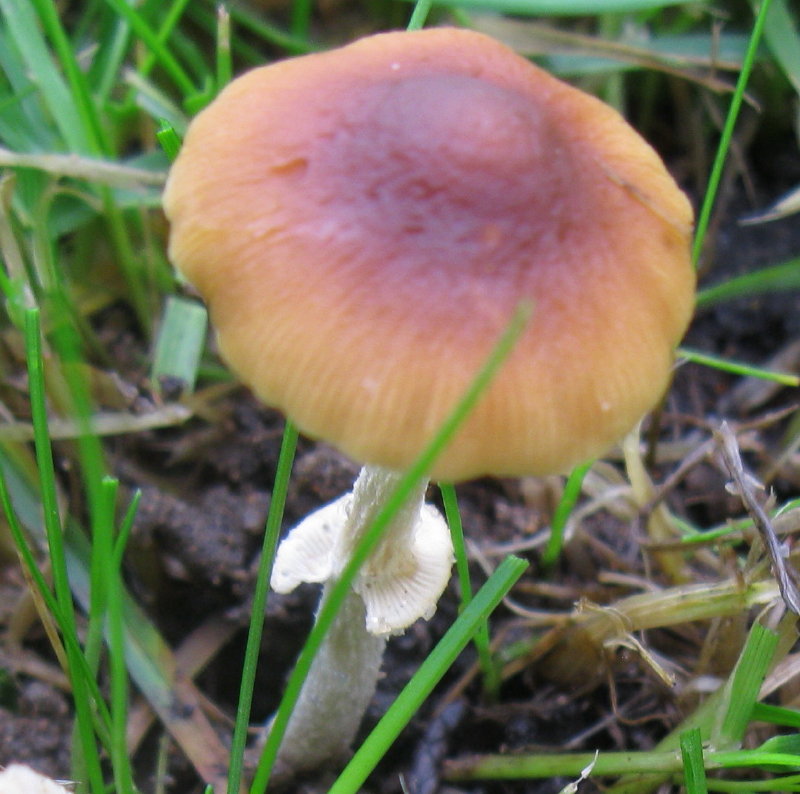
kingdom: Fungi
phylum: Basidiomycota
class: Agaricomycetes
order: Agaricales
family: Bolbitiaceae
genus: Conocybe
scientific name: Conocybe arrhenii
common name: ring-dansehat
